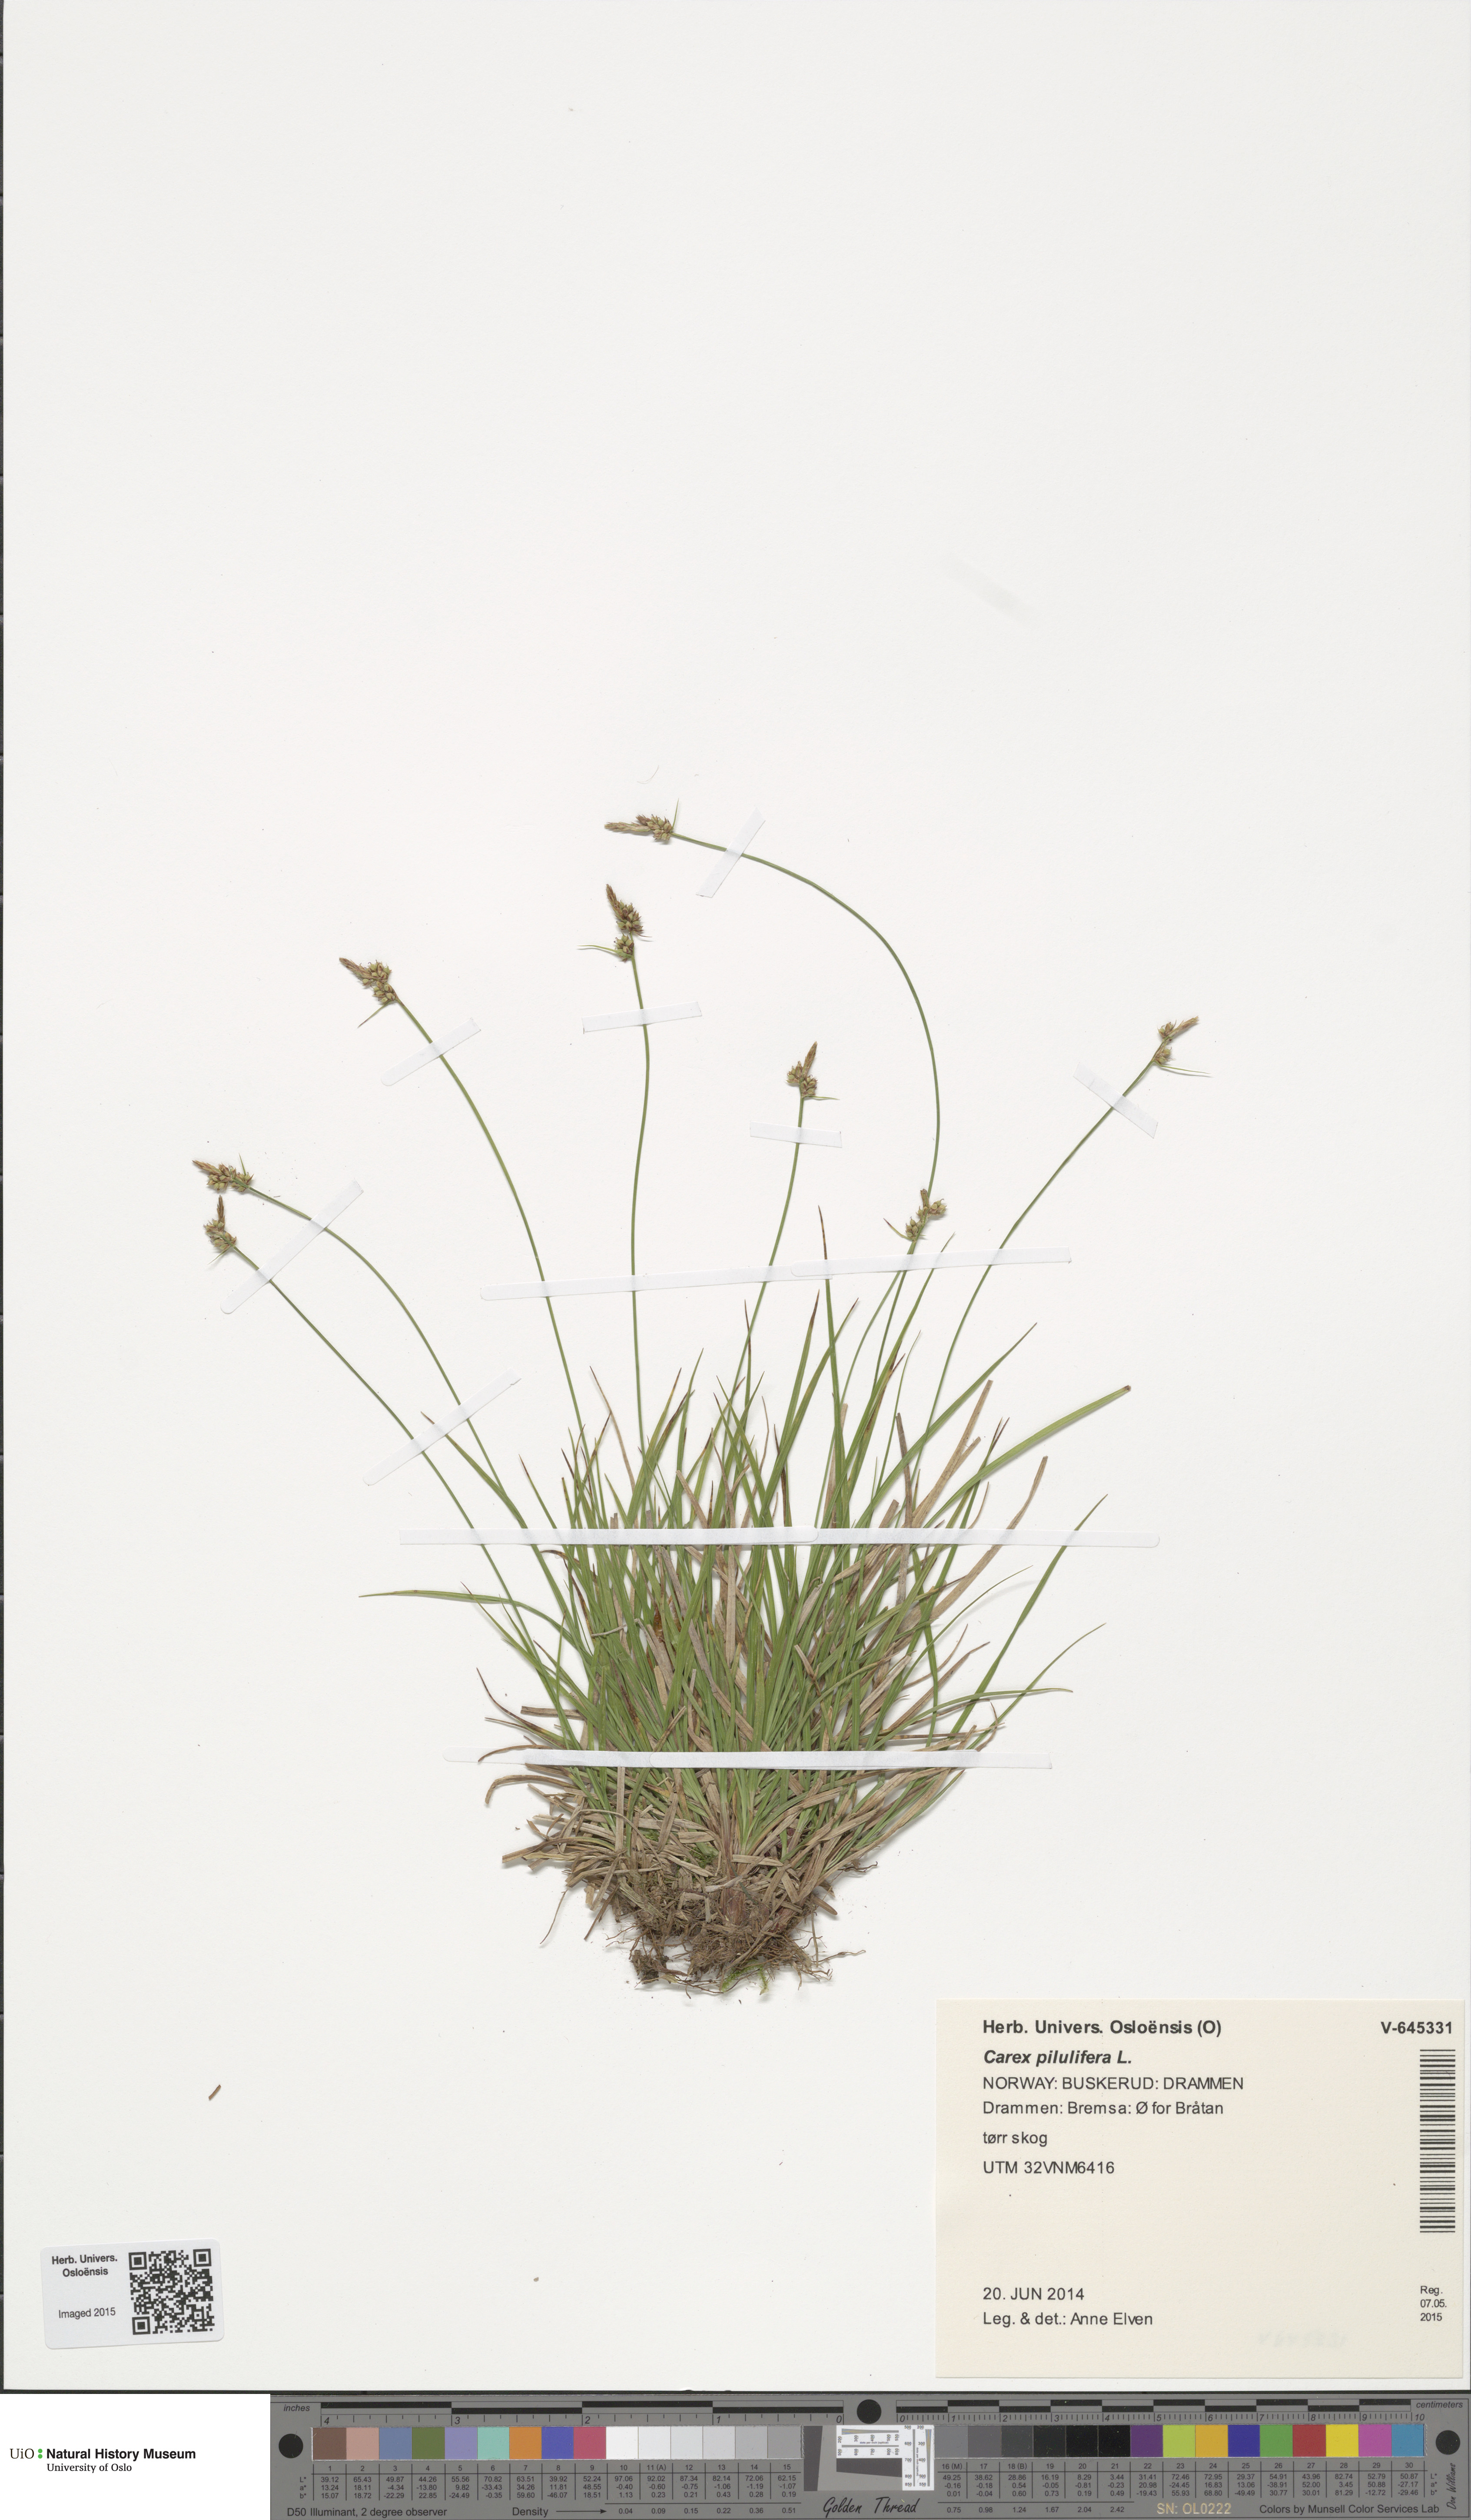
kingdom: Plantae
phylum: Tracheophyta
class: Liliopsida
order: Poales
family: Cyperaceae
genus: Carex
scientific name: Carex pilulifera
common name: Pill sedge
